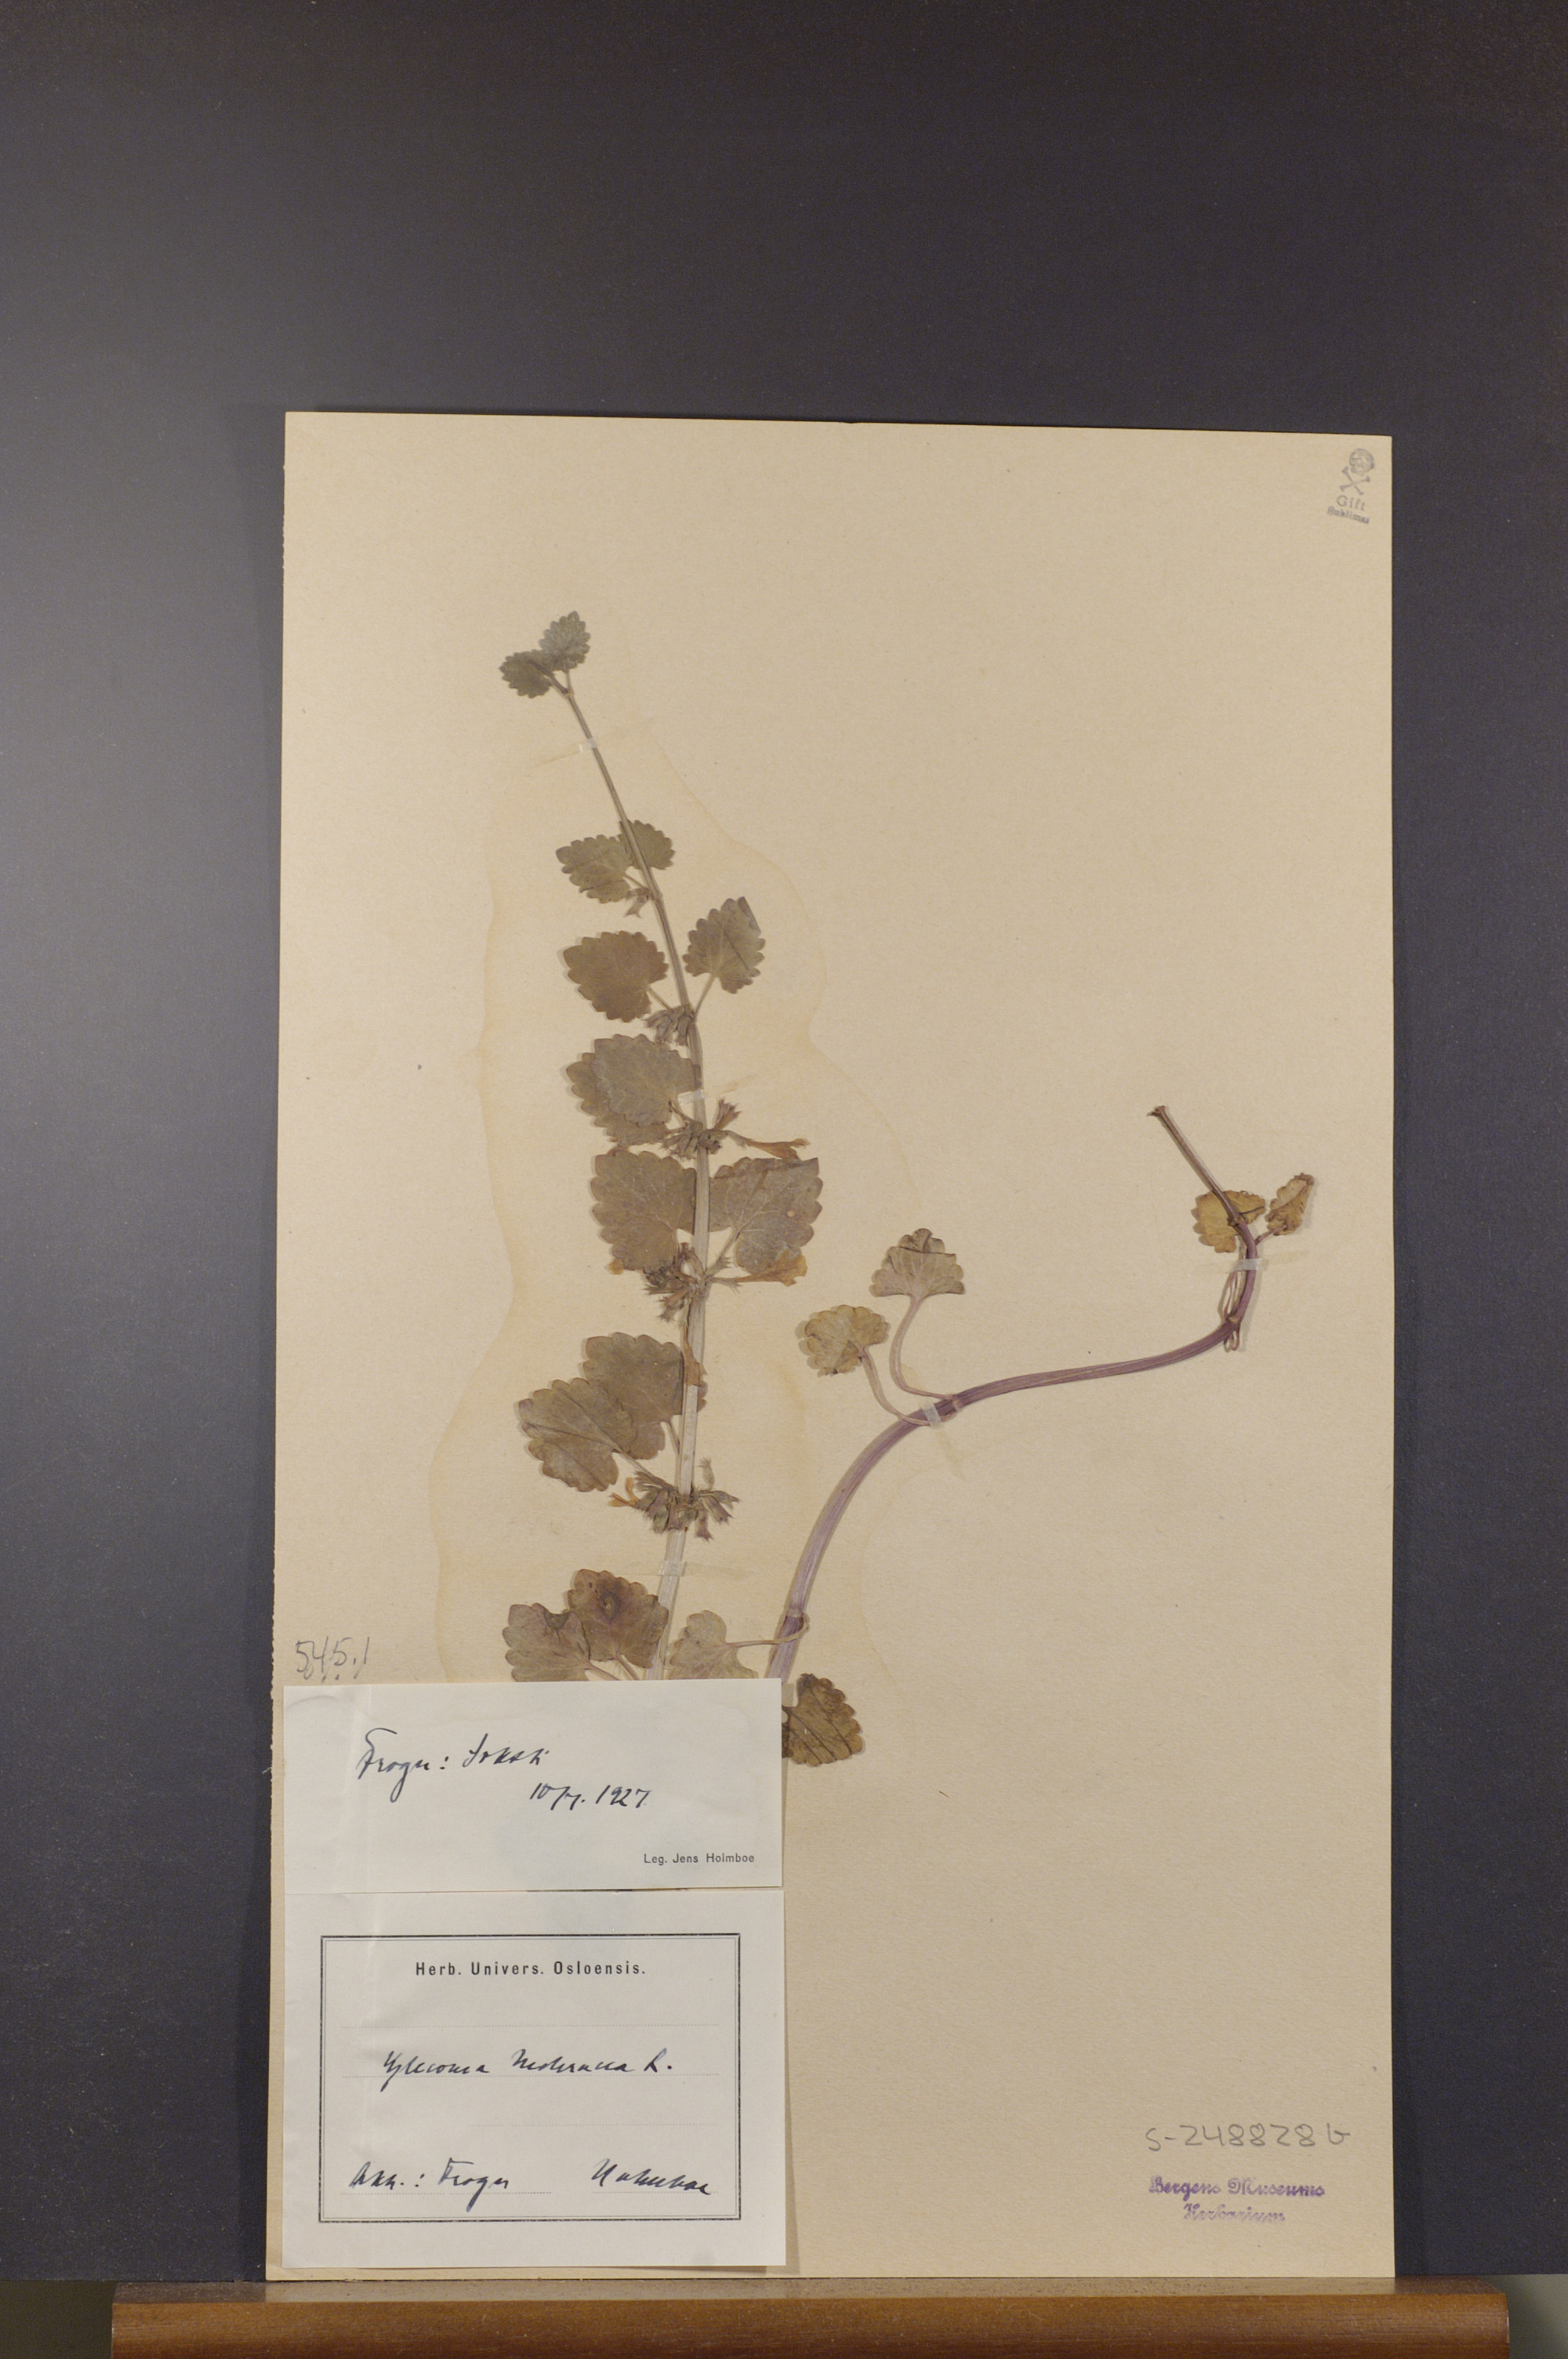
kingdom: Plantae
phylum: Tracheophyta
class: Magnoliopsida
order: Lamiales
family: Lamiaceae
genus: Glechoma
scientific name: Glechoma hederacea
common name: Ground ivy
